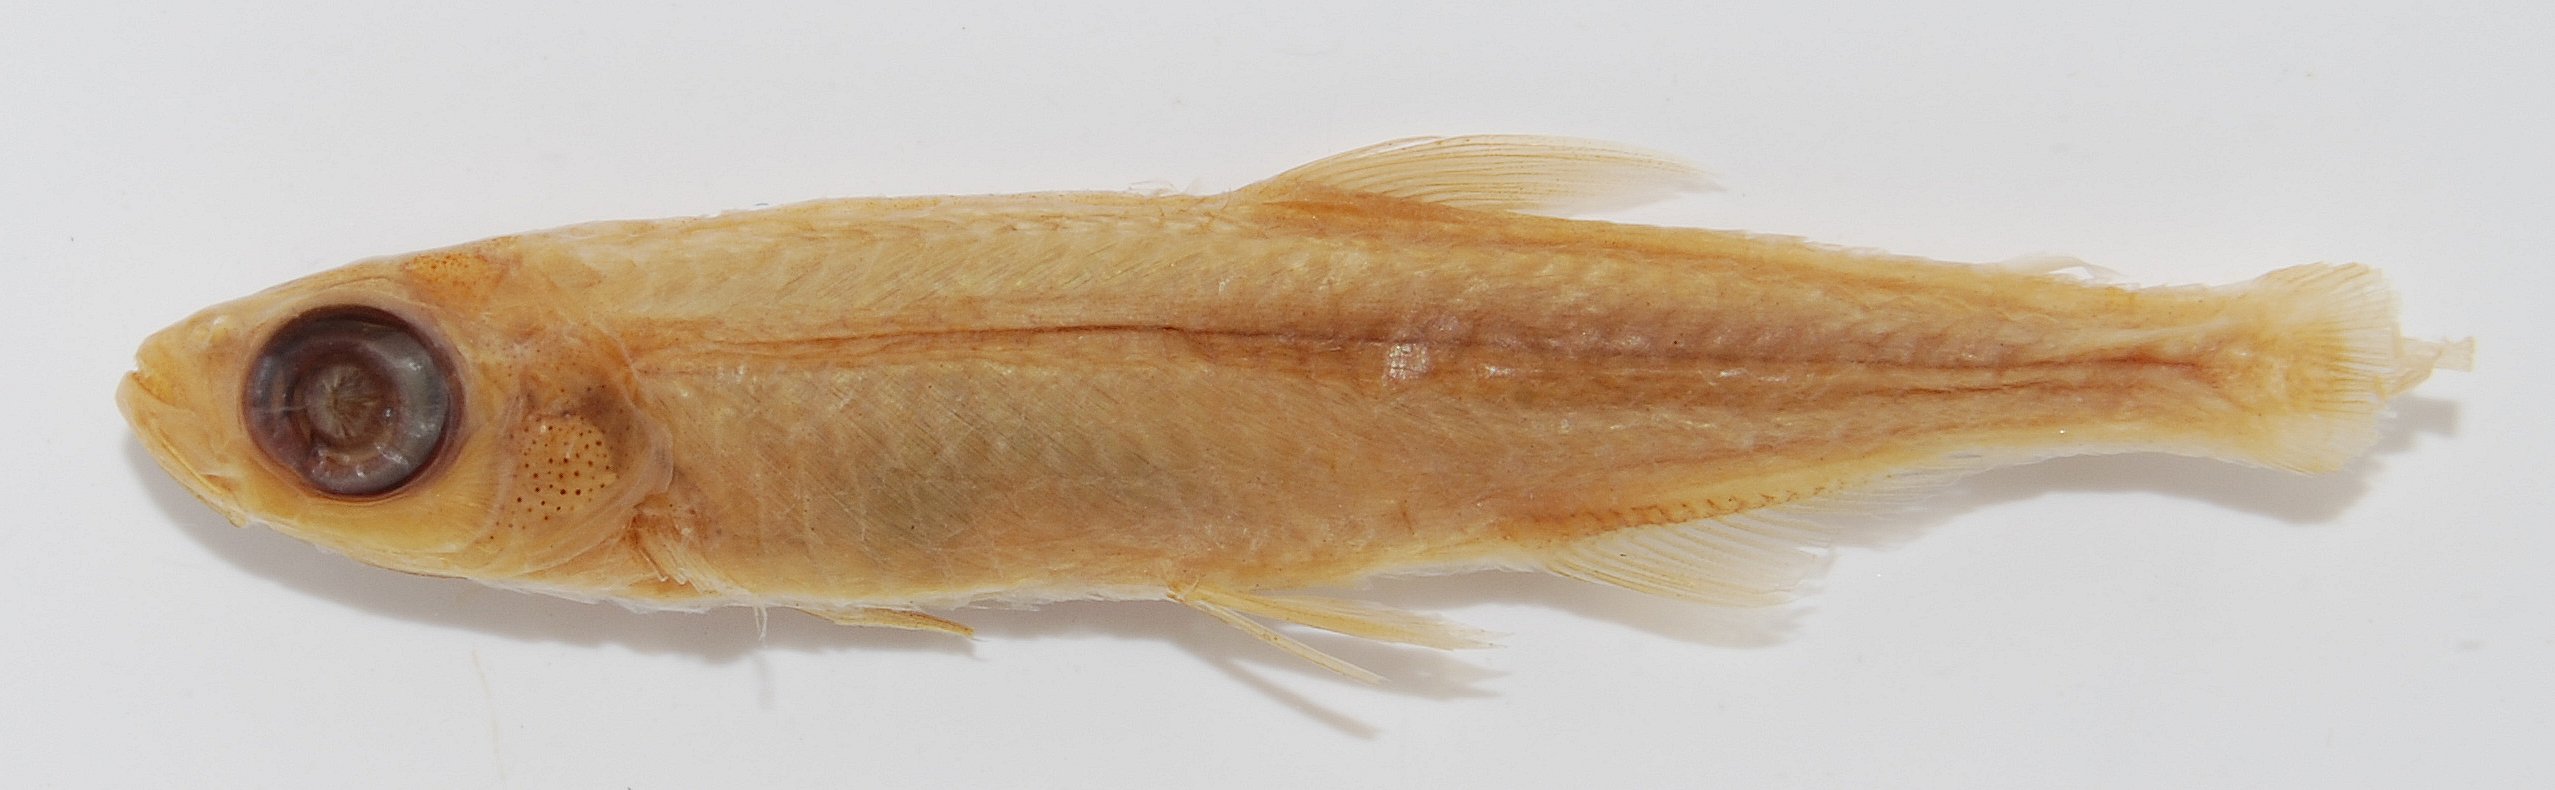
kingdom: Animalia
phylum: Chordata
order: Characiformes
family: Alestidae
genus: Rhabdalestes
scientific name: Rhabdalestes maunensis
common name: Slender robber
